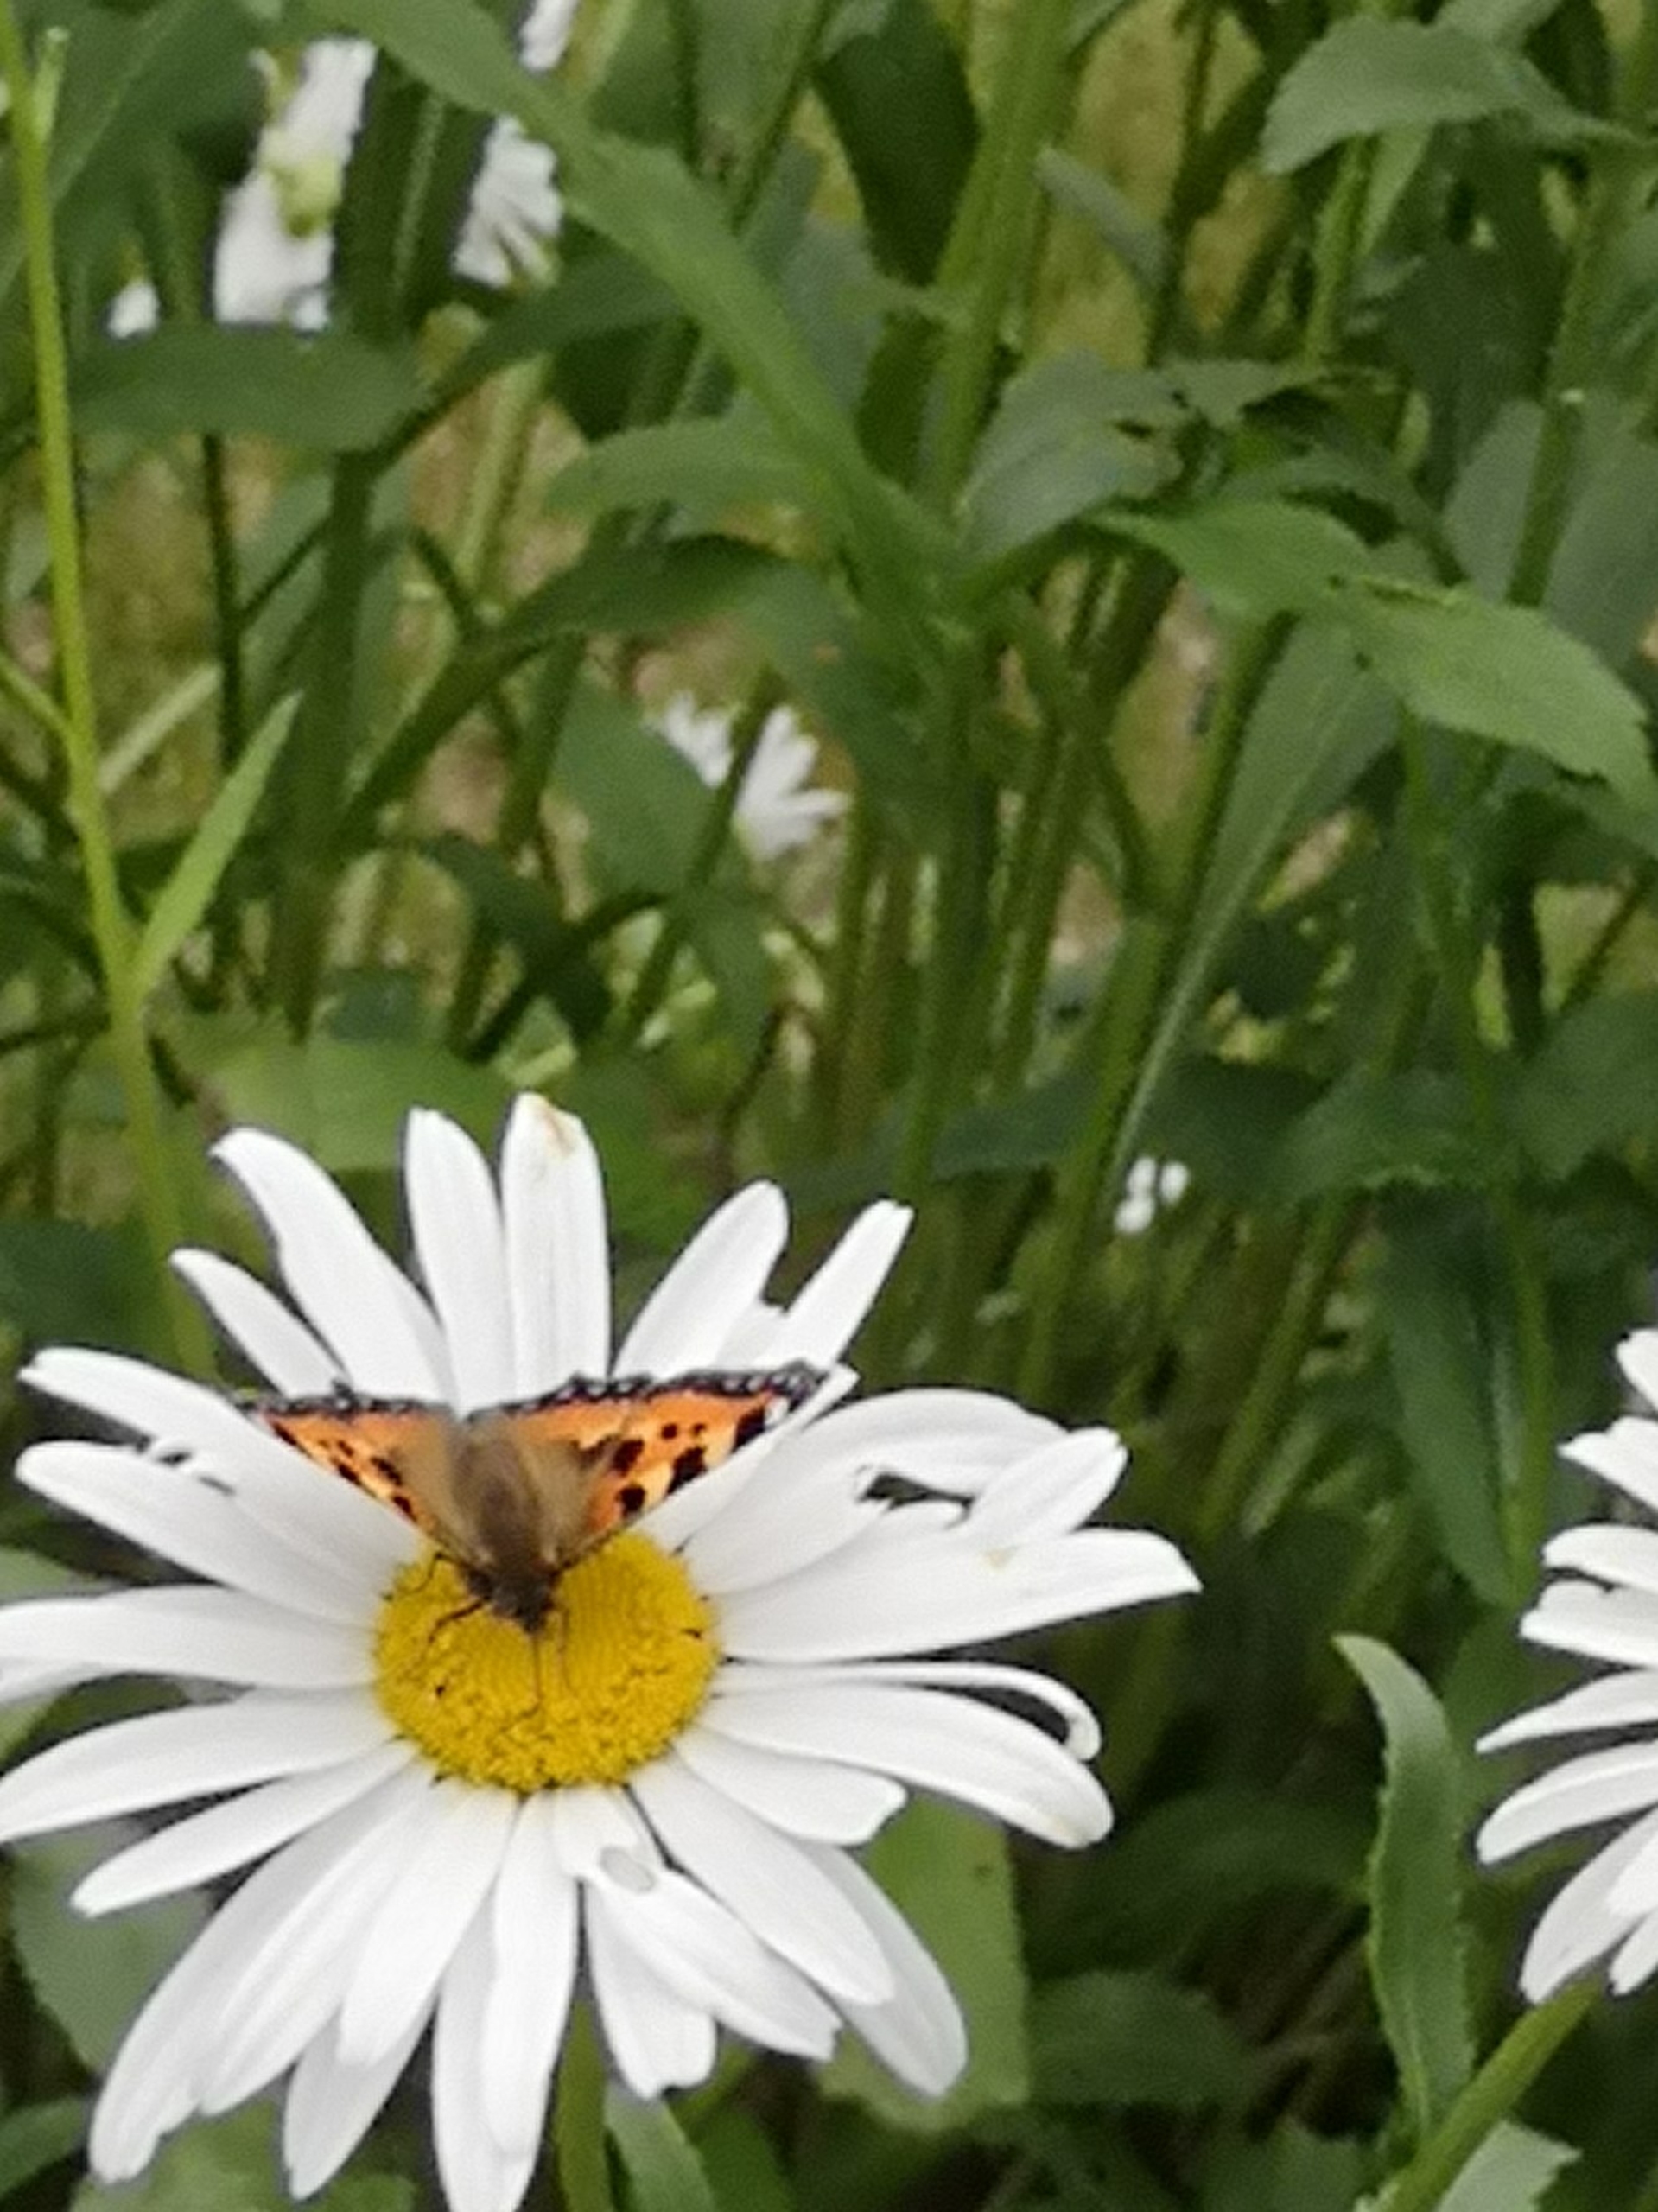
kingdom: Animalia
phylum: Arthropoda
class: Insecta
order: Lepidoptera
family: Nymphalidae
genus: Aglais
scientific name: Aglais urticae
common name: Nældens takvinge
